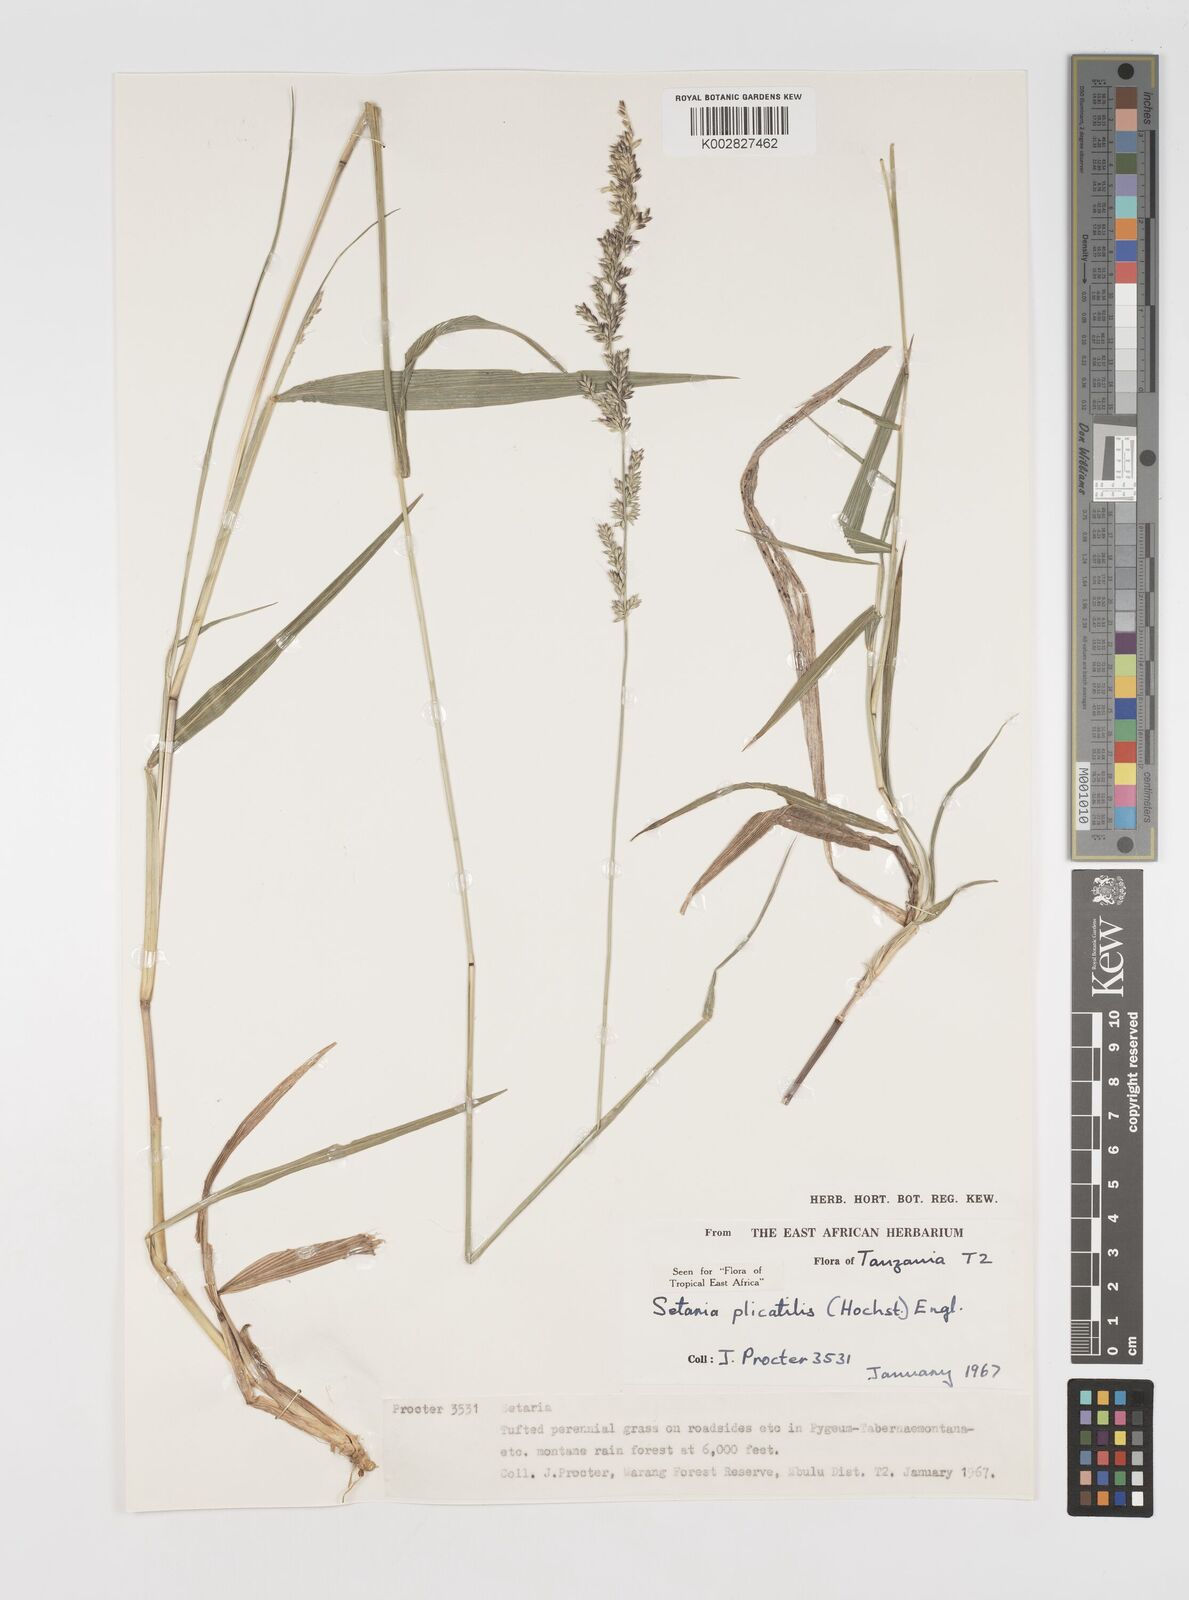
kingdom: Plantae
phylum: Tracheophyta
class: Liliopsida
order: Poales
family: Poaceae
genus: Setaria
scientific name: Setaria megaphylla
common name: Bigleaf bristlegrass
